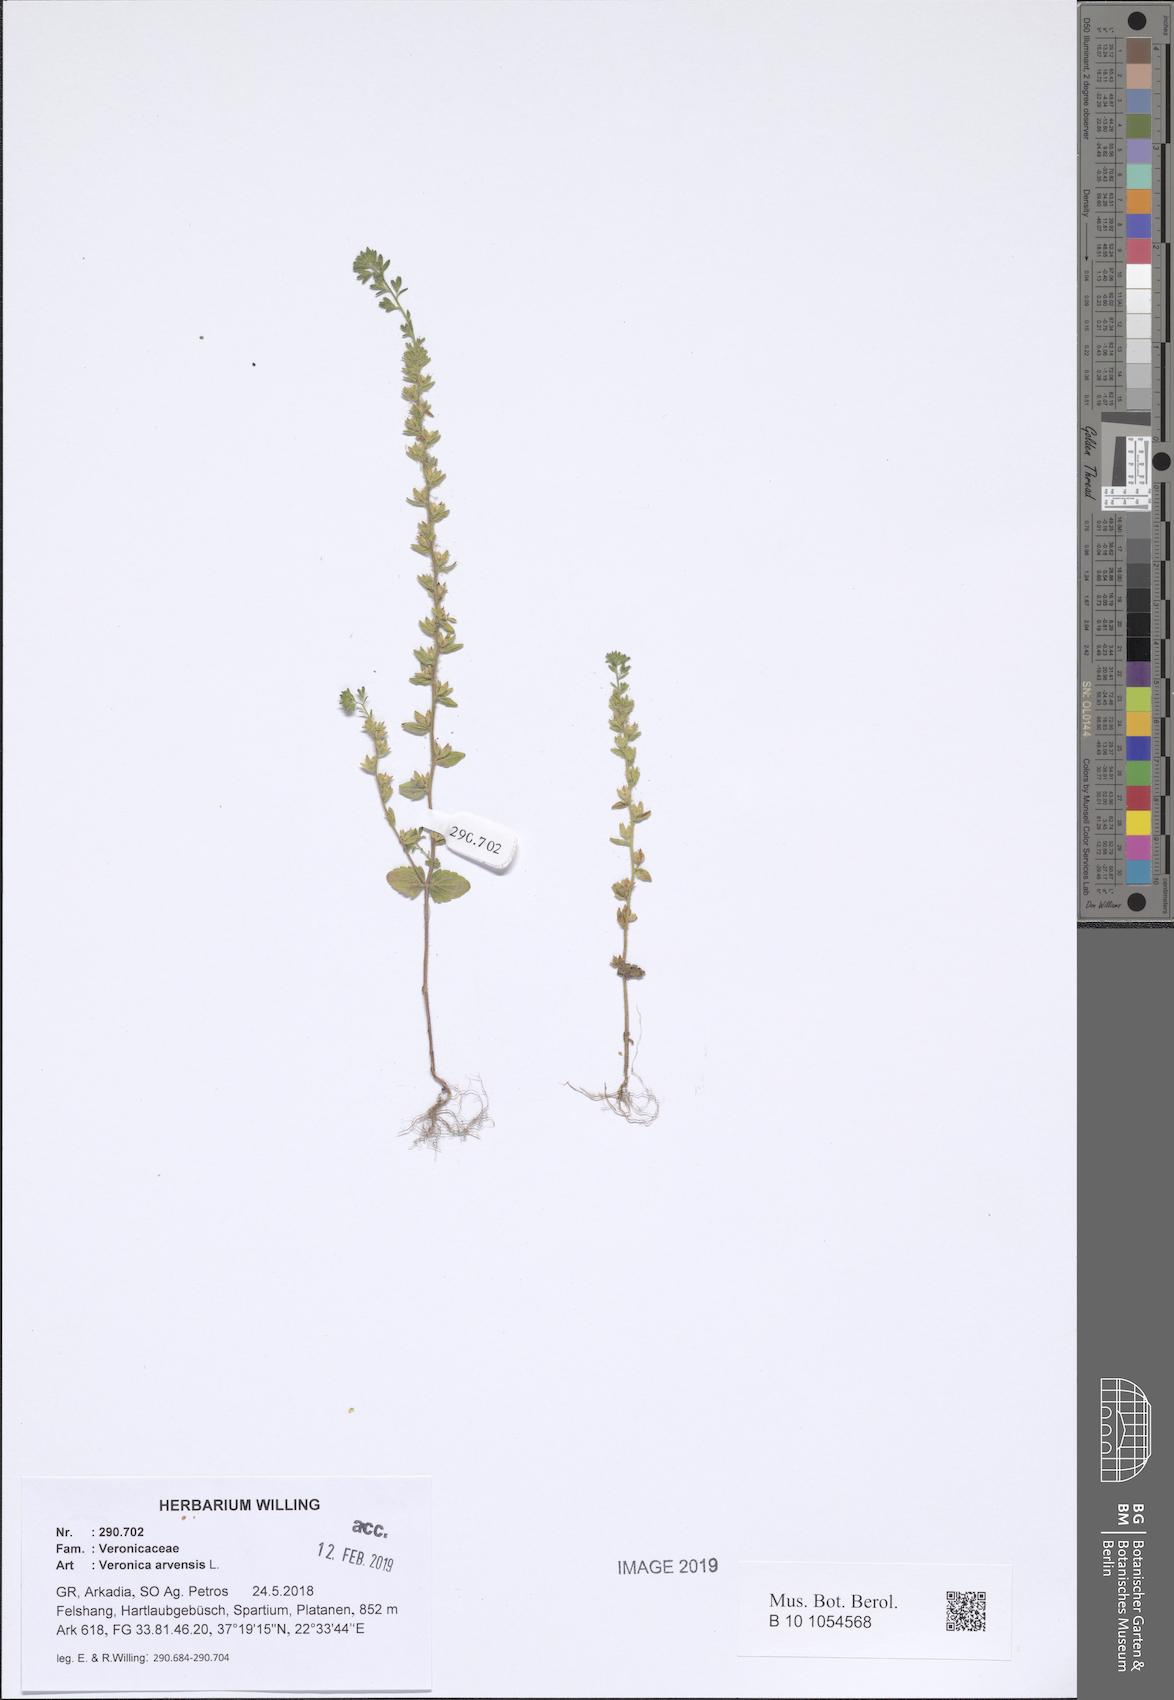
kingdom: Plantae
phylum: Tracheophyta
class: Magnoliopsida
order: Lamiales
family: Plantaginaceae
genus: Veronica
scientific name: Veronica arvensis
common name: Corn speedwell
